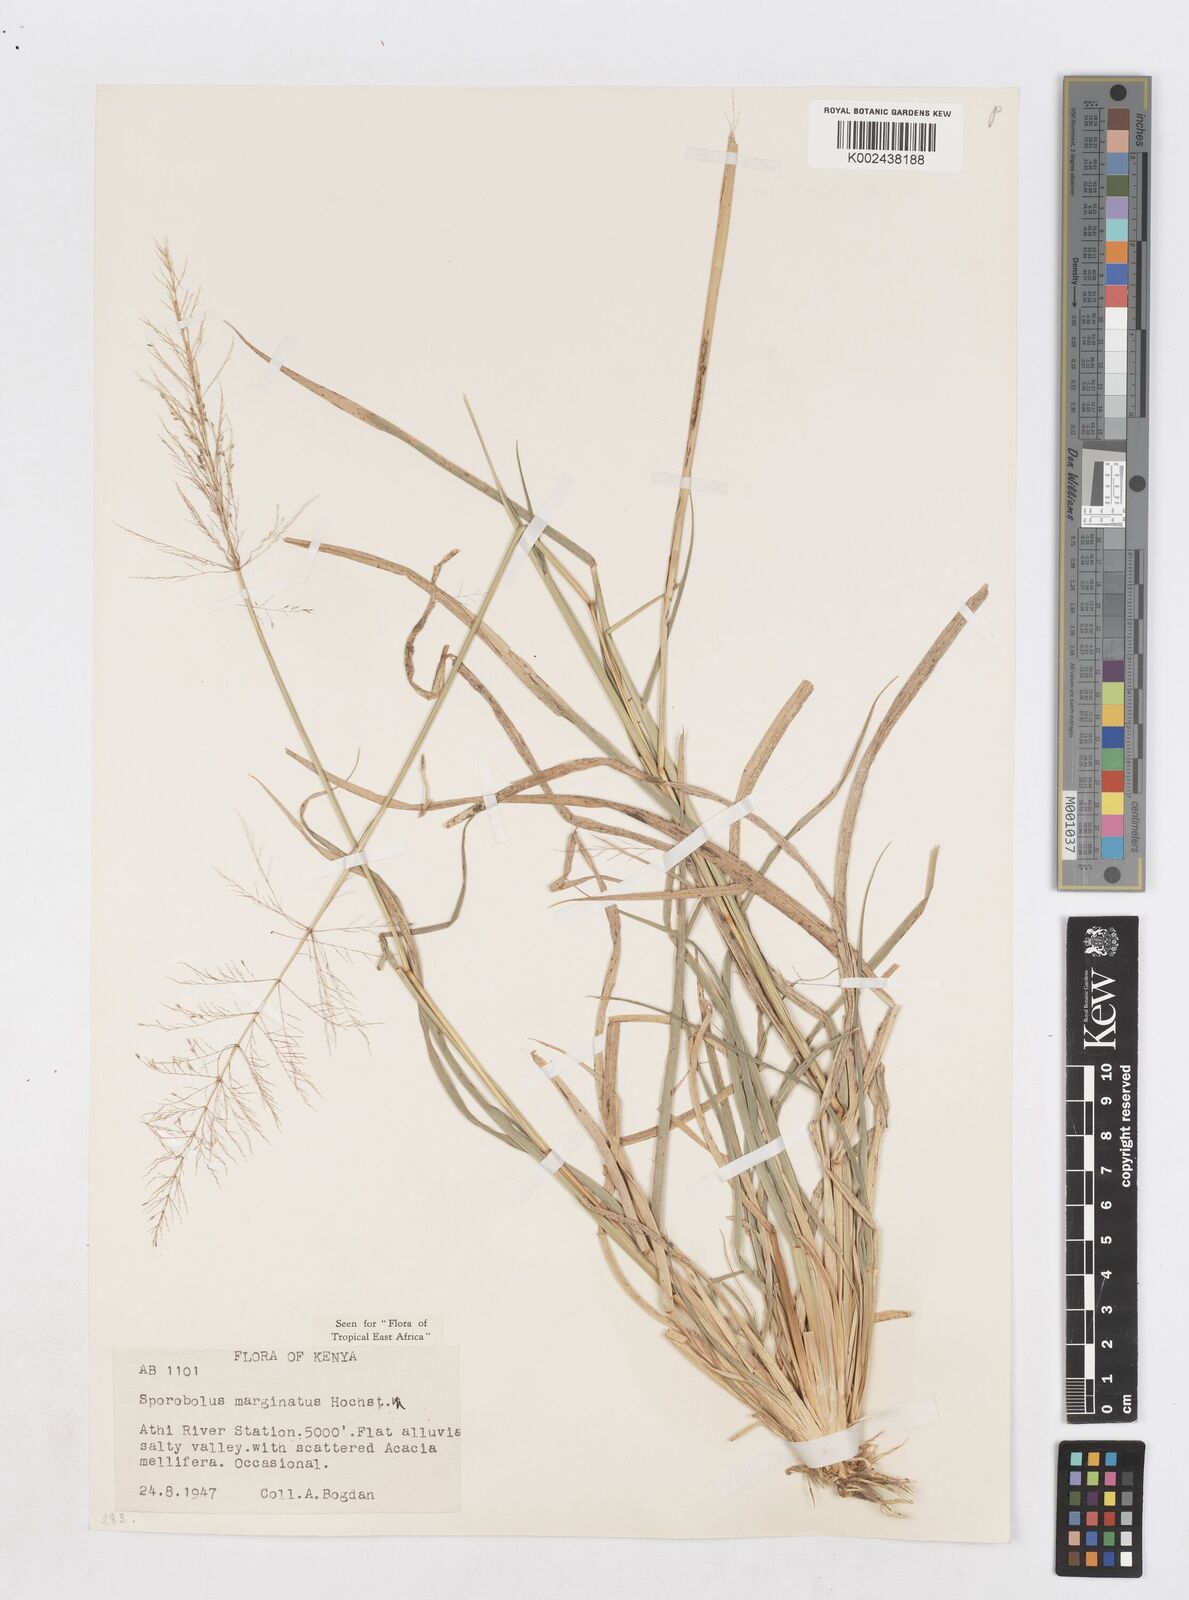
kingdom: Plantae
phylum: Tracheophyta
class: Liliopsida
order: Poales
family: Poaceae
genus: Sporobolus
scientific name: Sporobolus ioclados
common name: Pan dropseed
